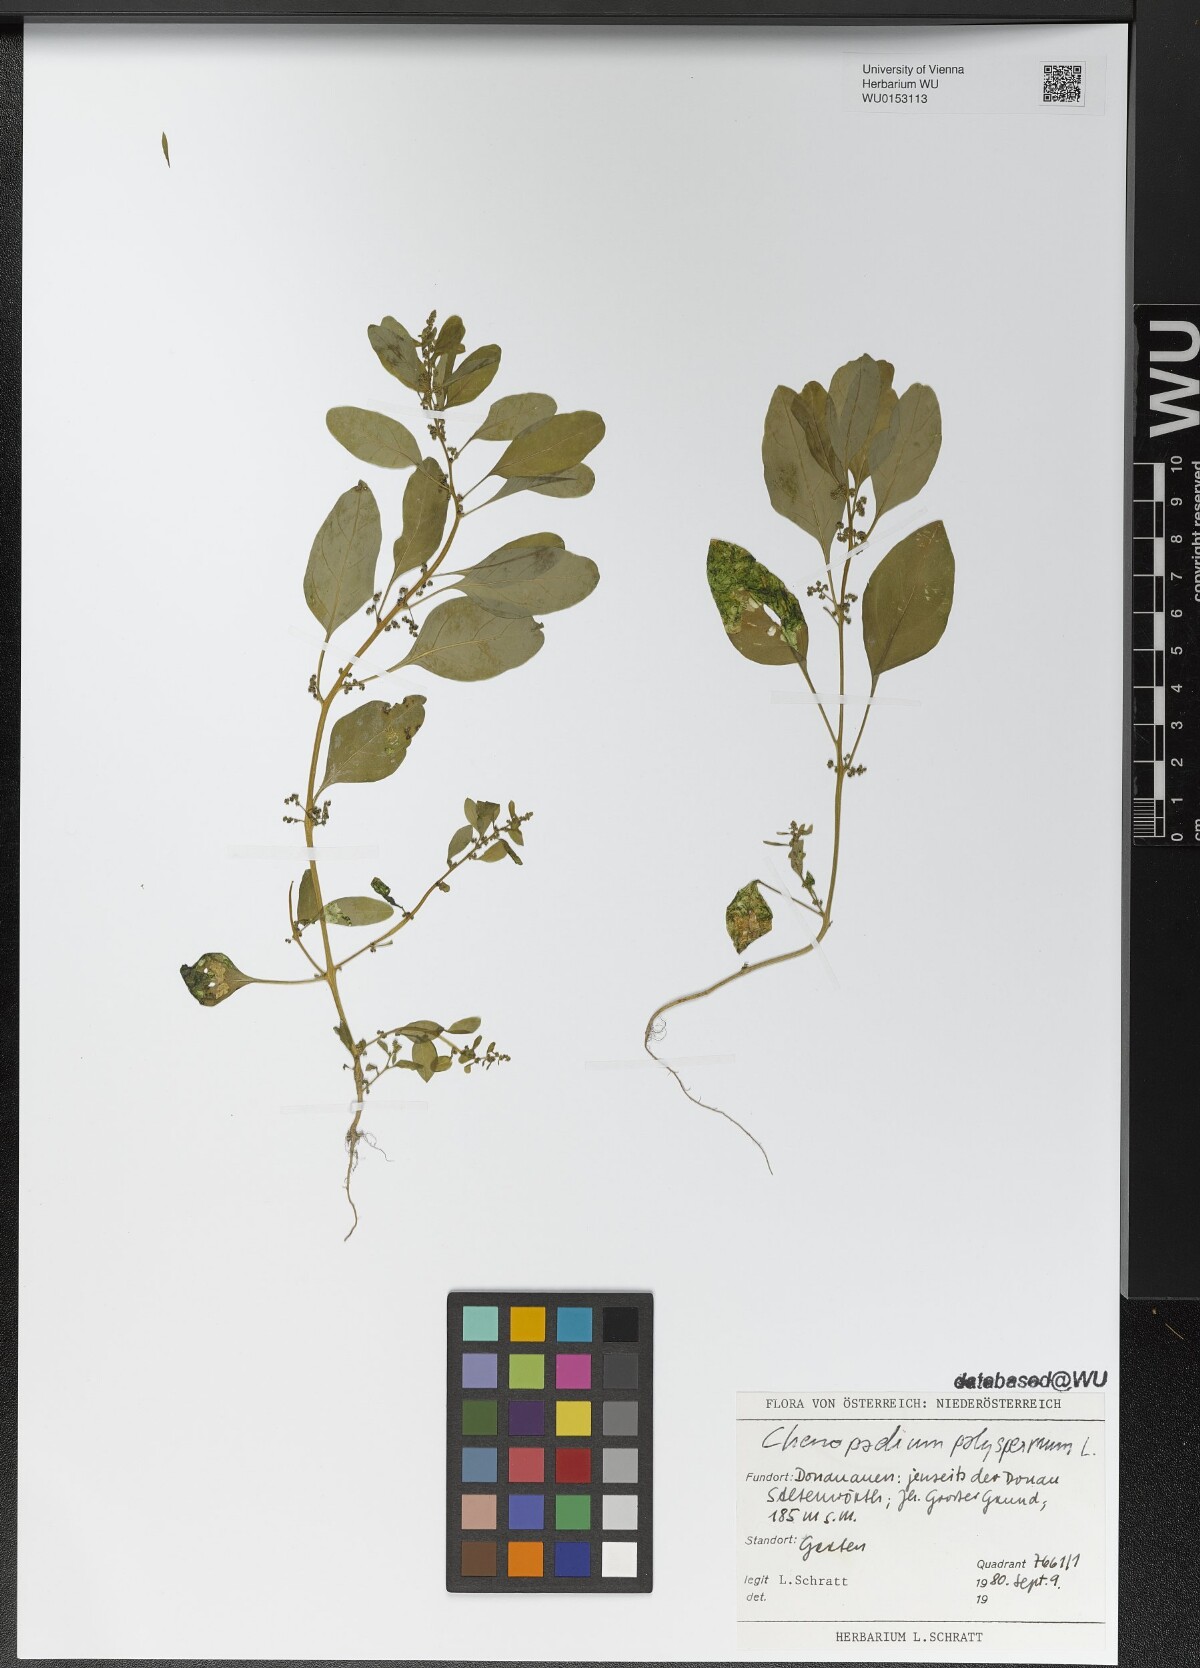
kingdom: Plantae
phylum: Tracheophyta
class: Magnoliopsida
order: Caryophyllales
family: Amaranthaceae
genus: Lipandra
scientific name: Lipandra polysperma
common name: Many-seed goosefoot
